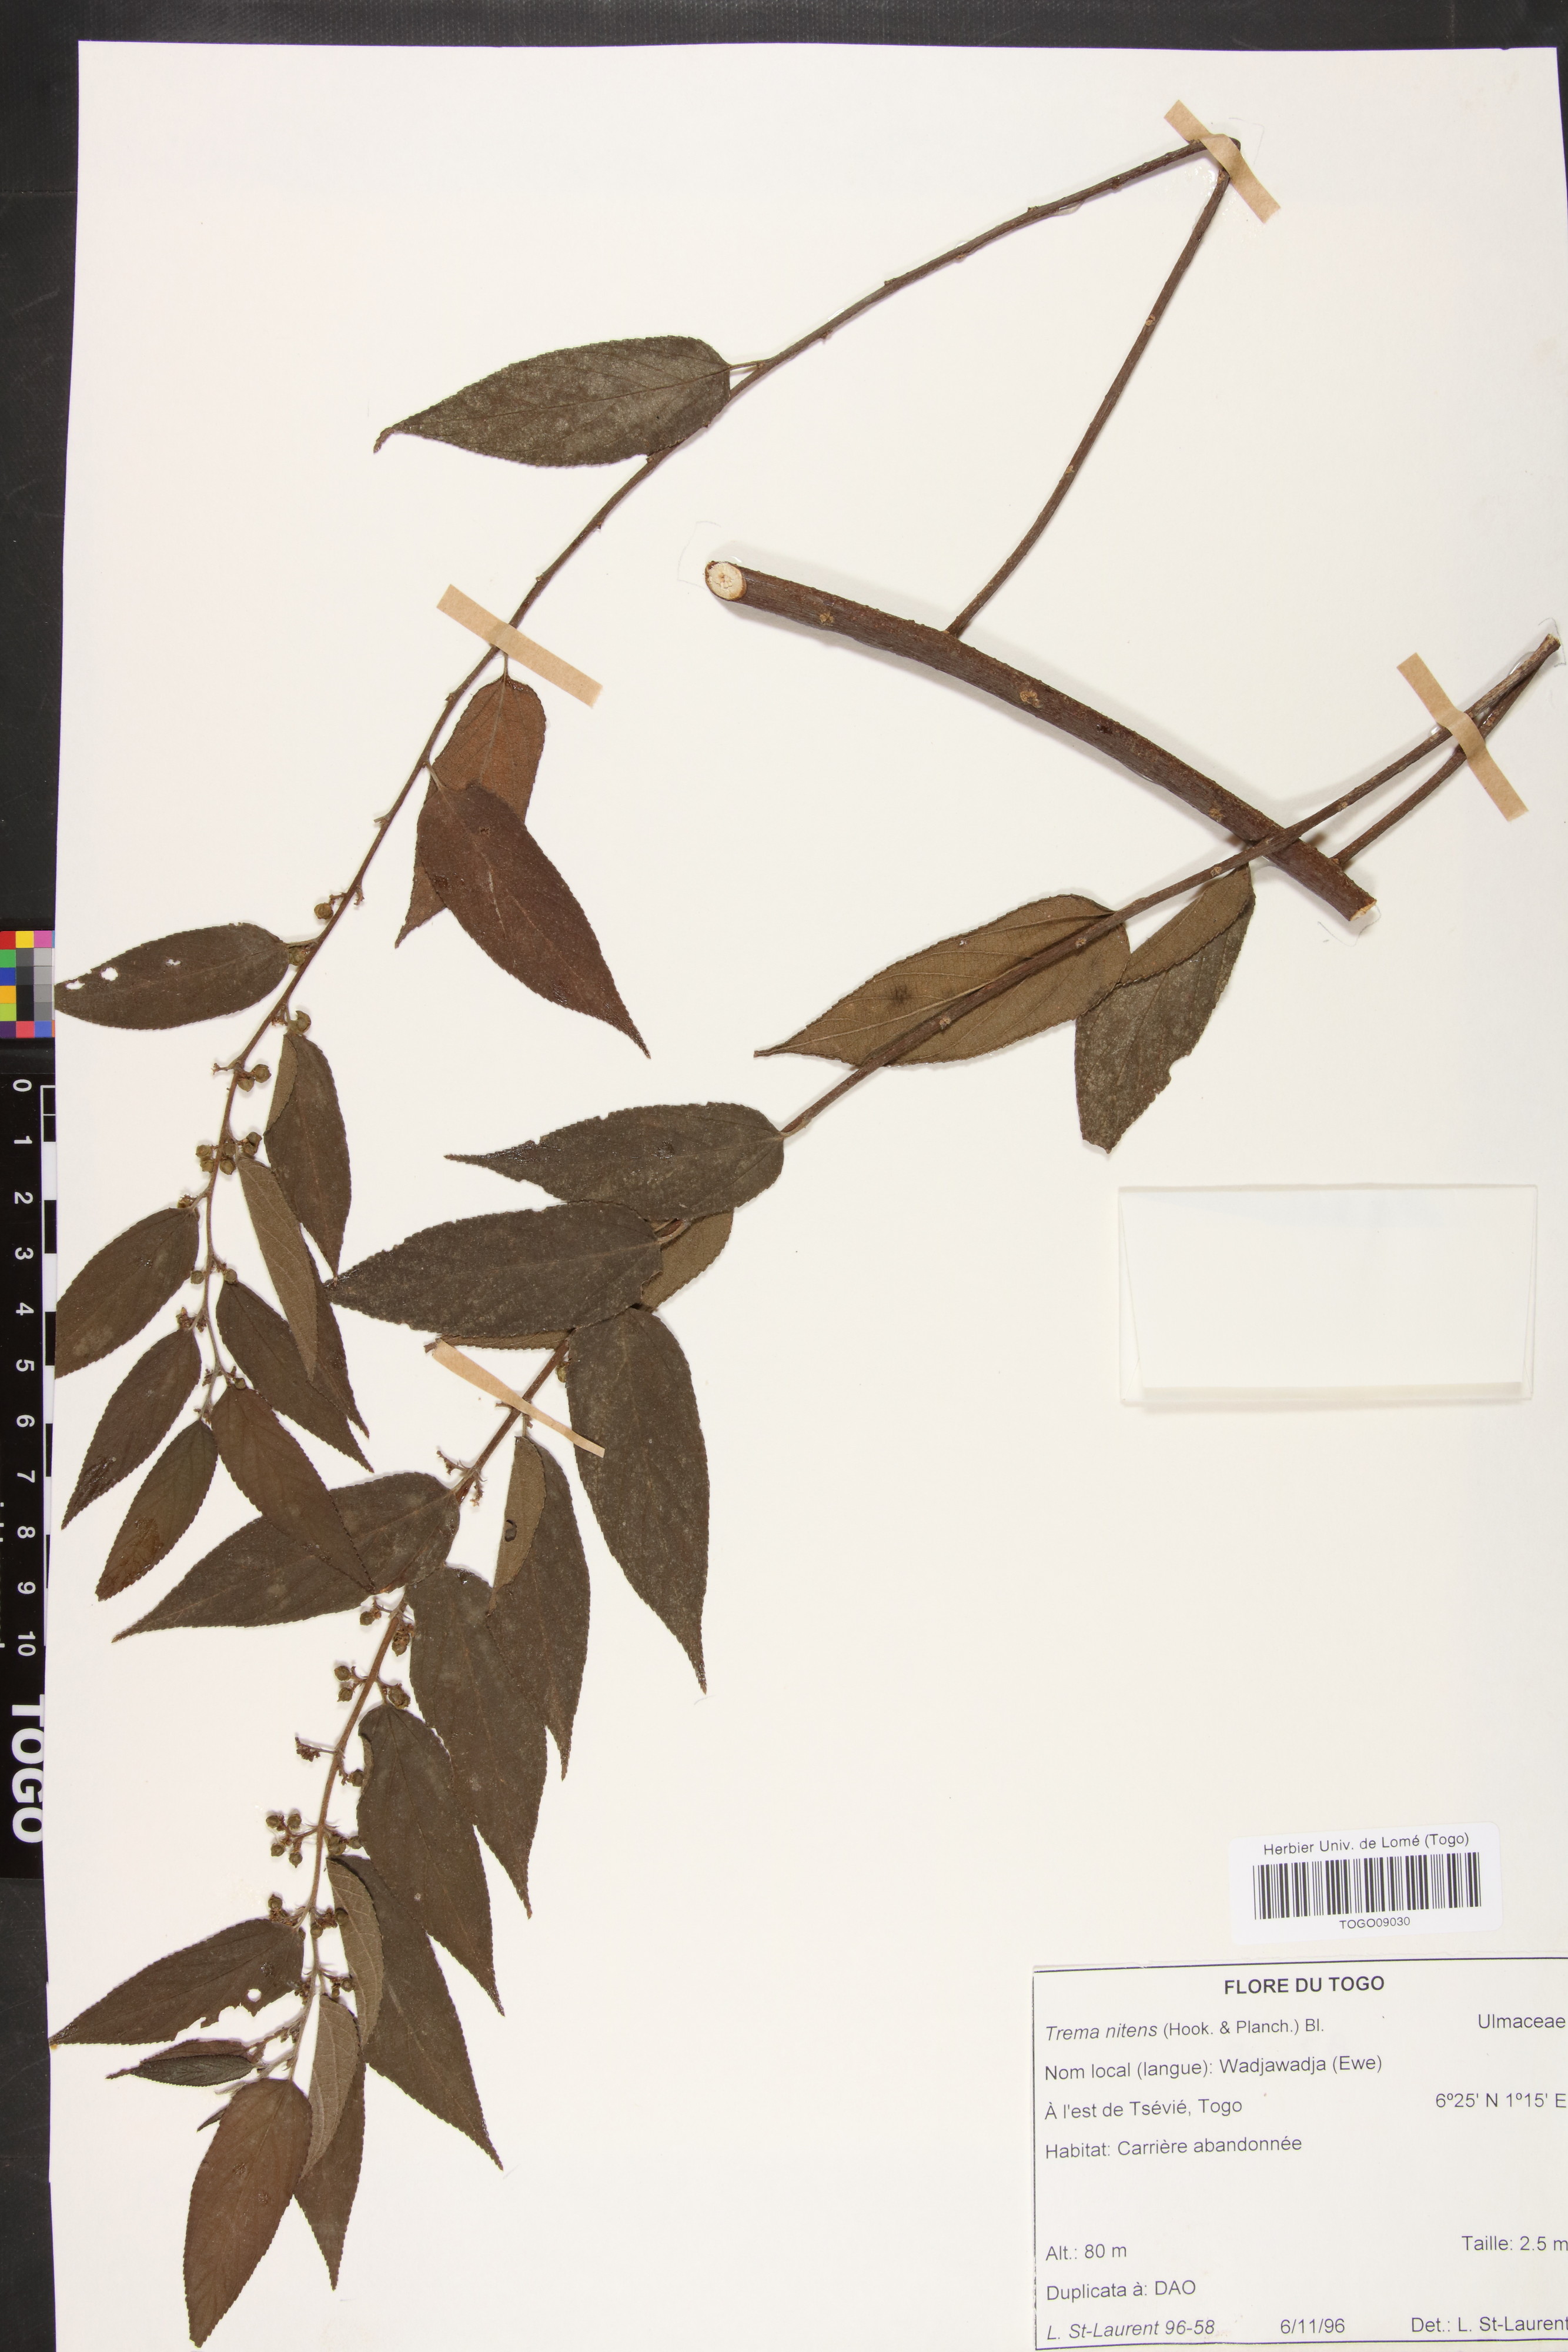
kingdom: Plantae
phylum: Tracheophyta
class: Magnoliopsida
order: Rosales
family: Cannabaceae
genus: Trema
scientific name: Trema orientale
